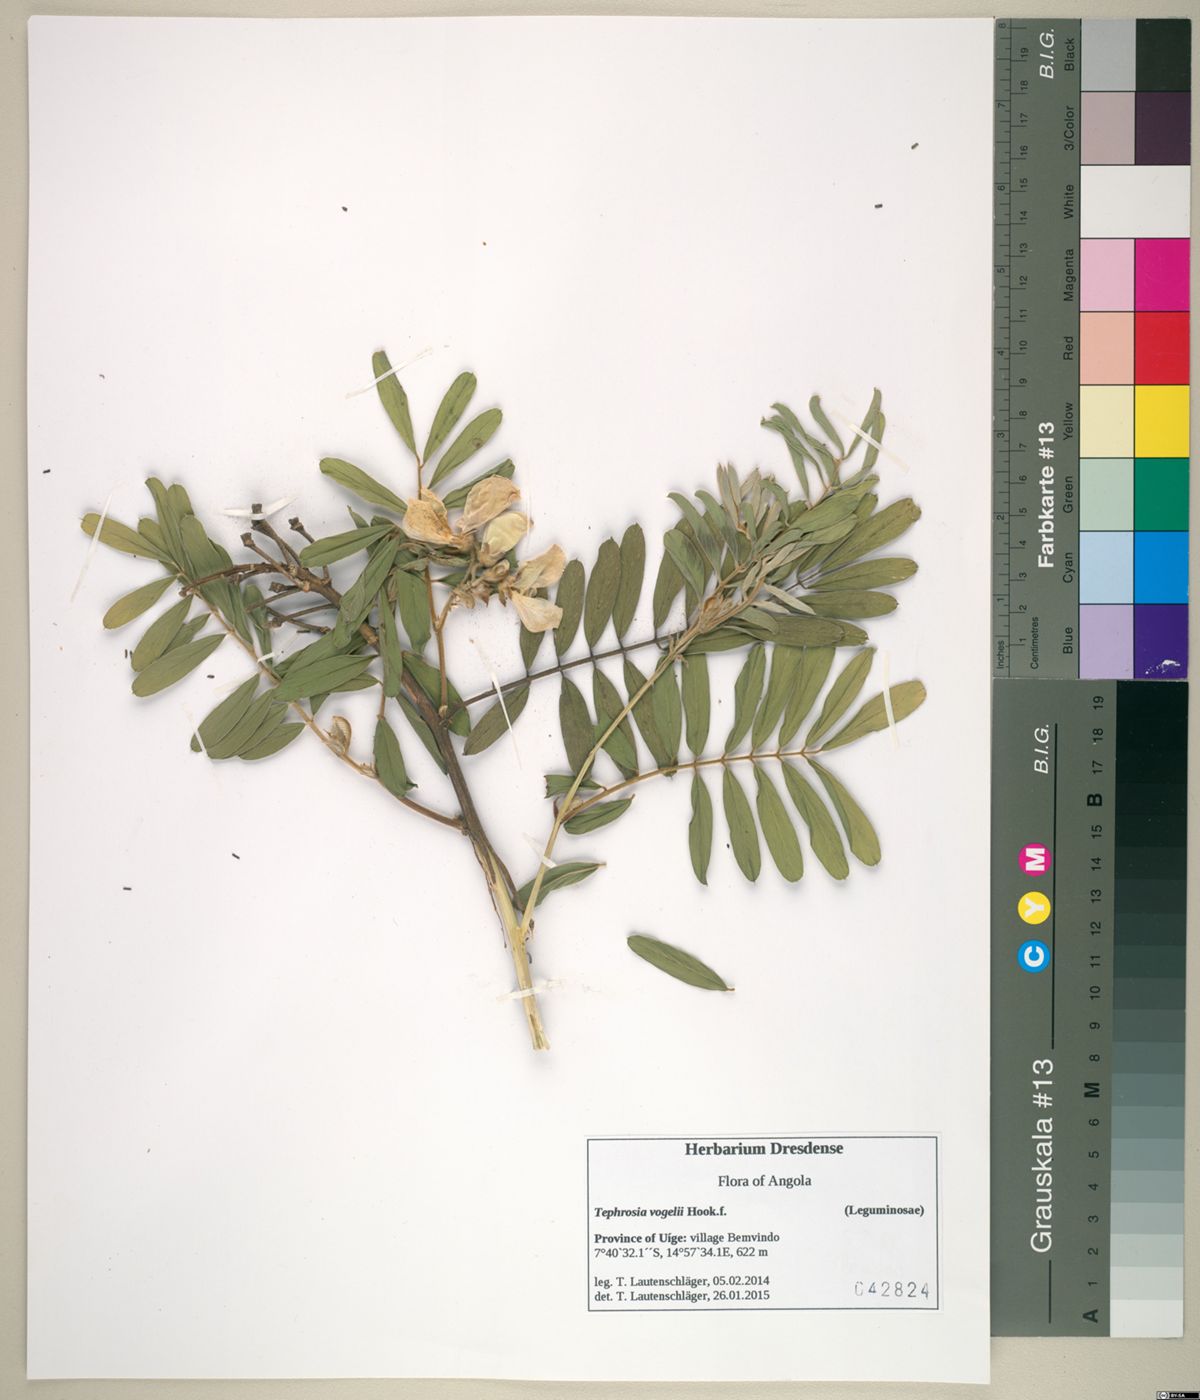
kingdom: Plantae
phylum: Tracheophyta
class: Magnoliopsida
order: Fabales
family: Fabaceae
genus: Tephrosia
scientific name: Tephrosia vogelii
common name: Vogel tephrosia
